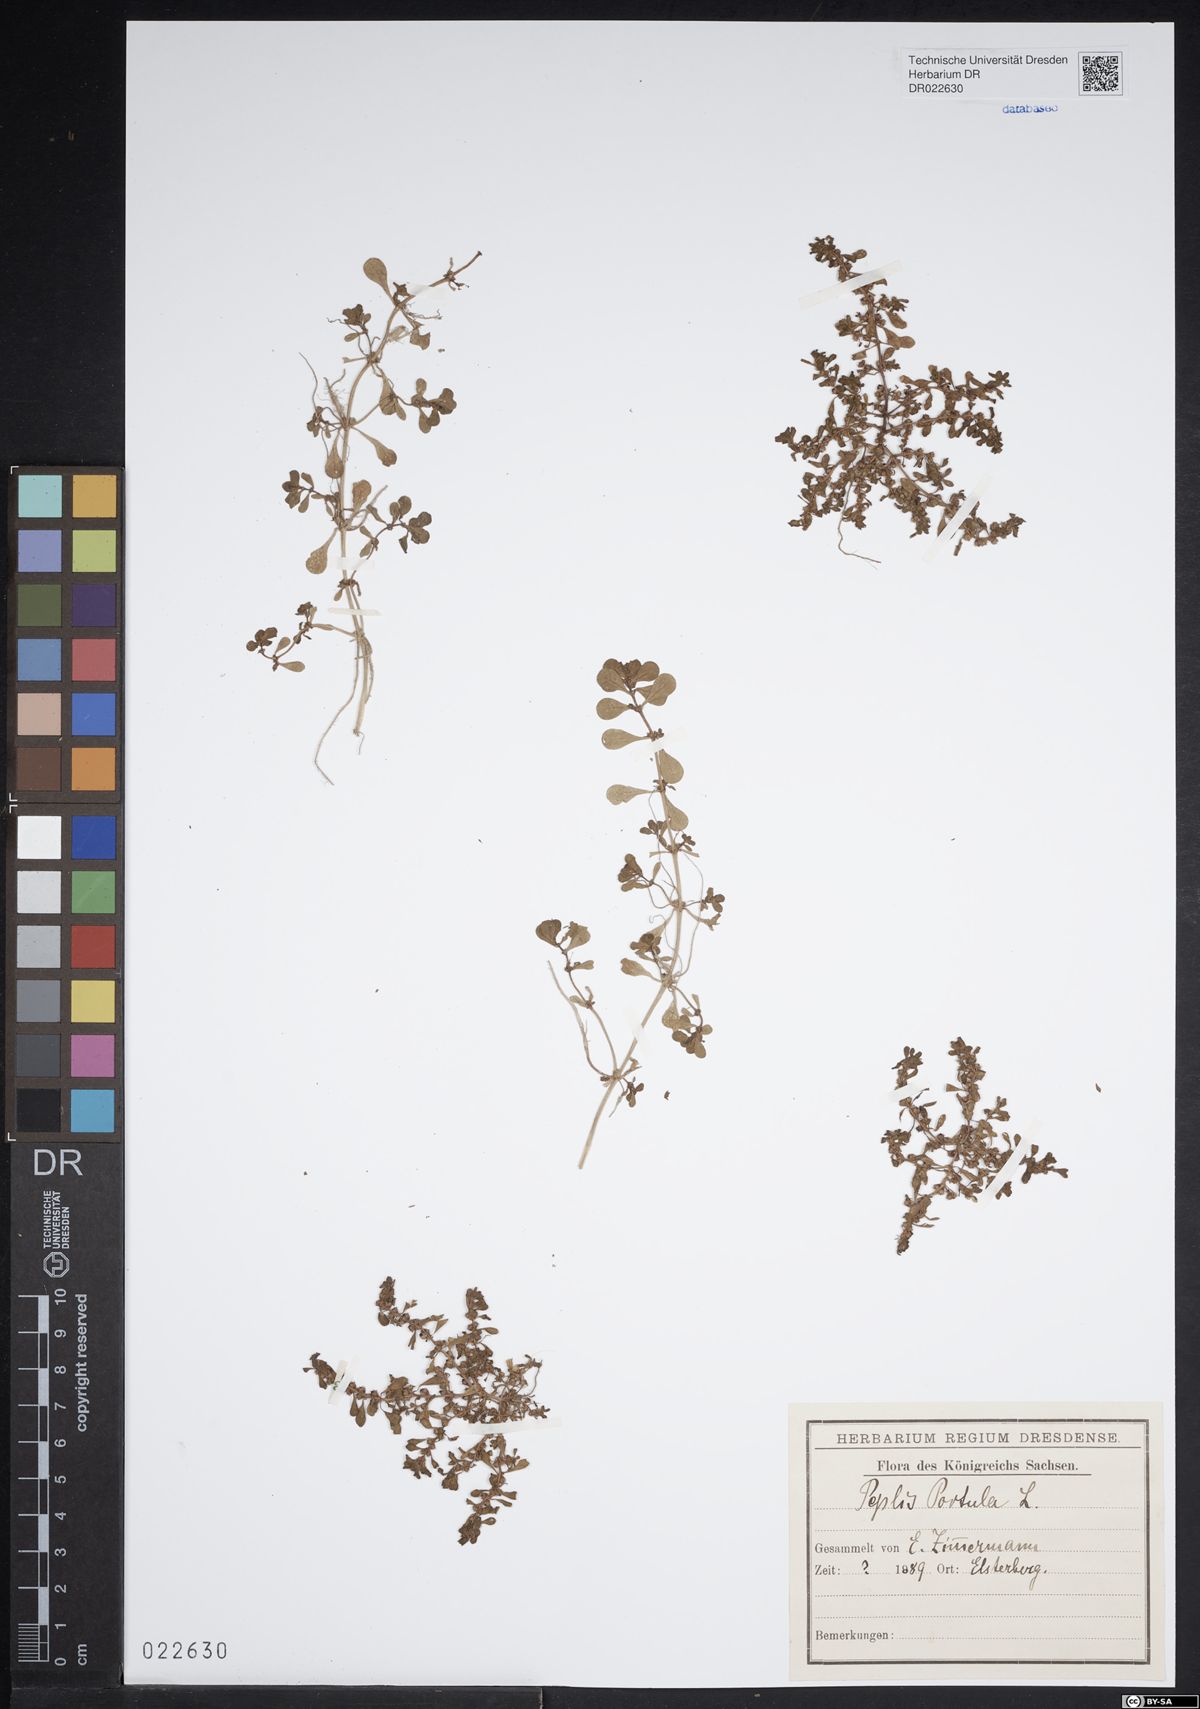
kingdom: Plantae
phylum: Tracheophyta
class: Magnoliopsida
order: Myrtales
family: Lythraceae
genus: Lythrum
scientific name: Lythrum portula
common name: Water purslane
